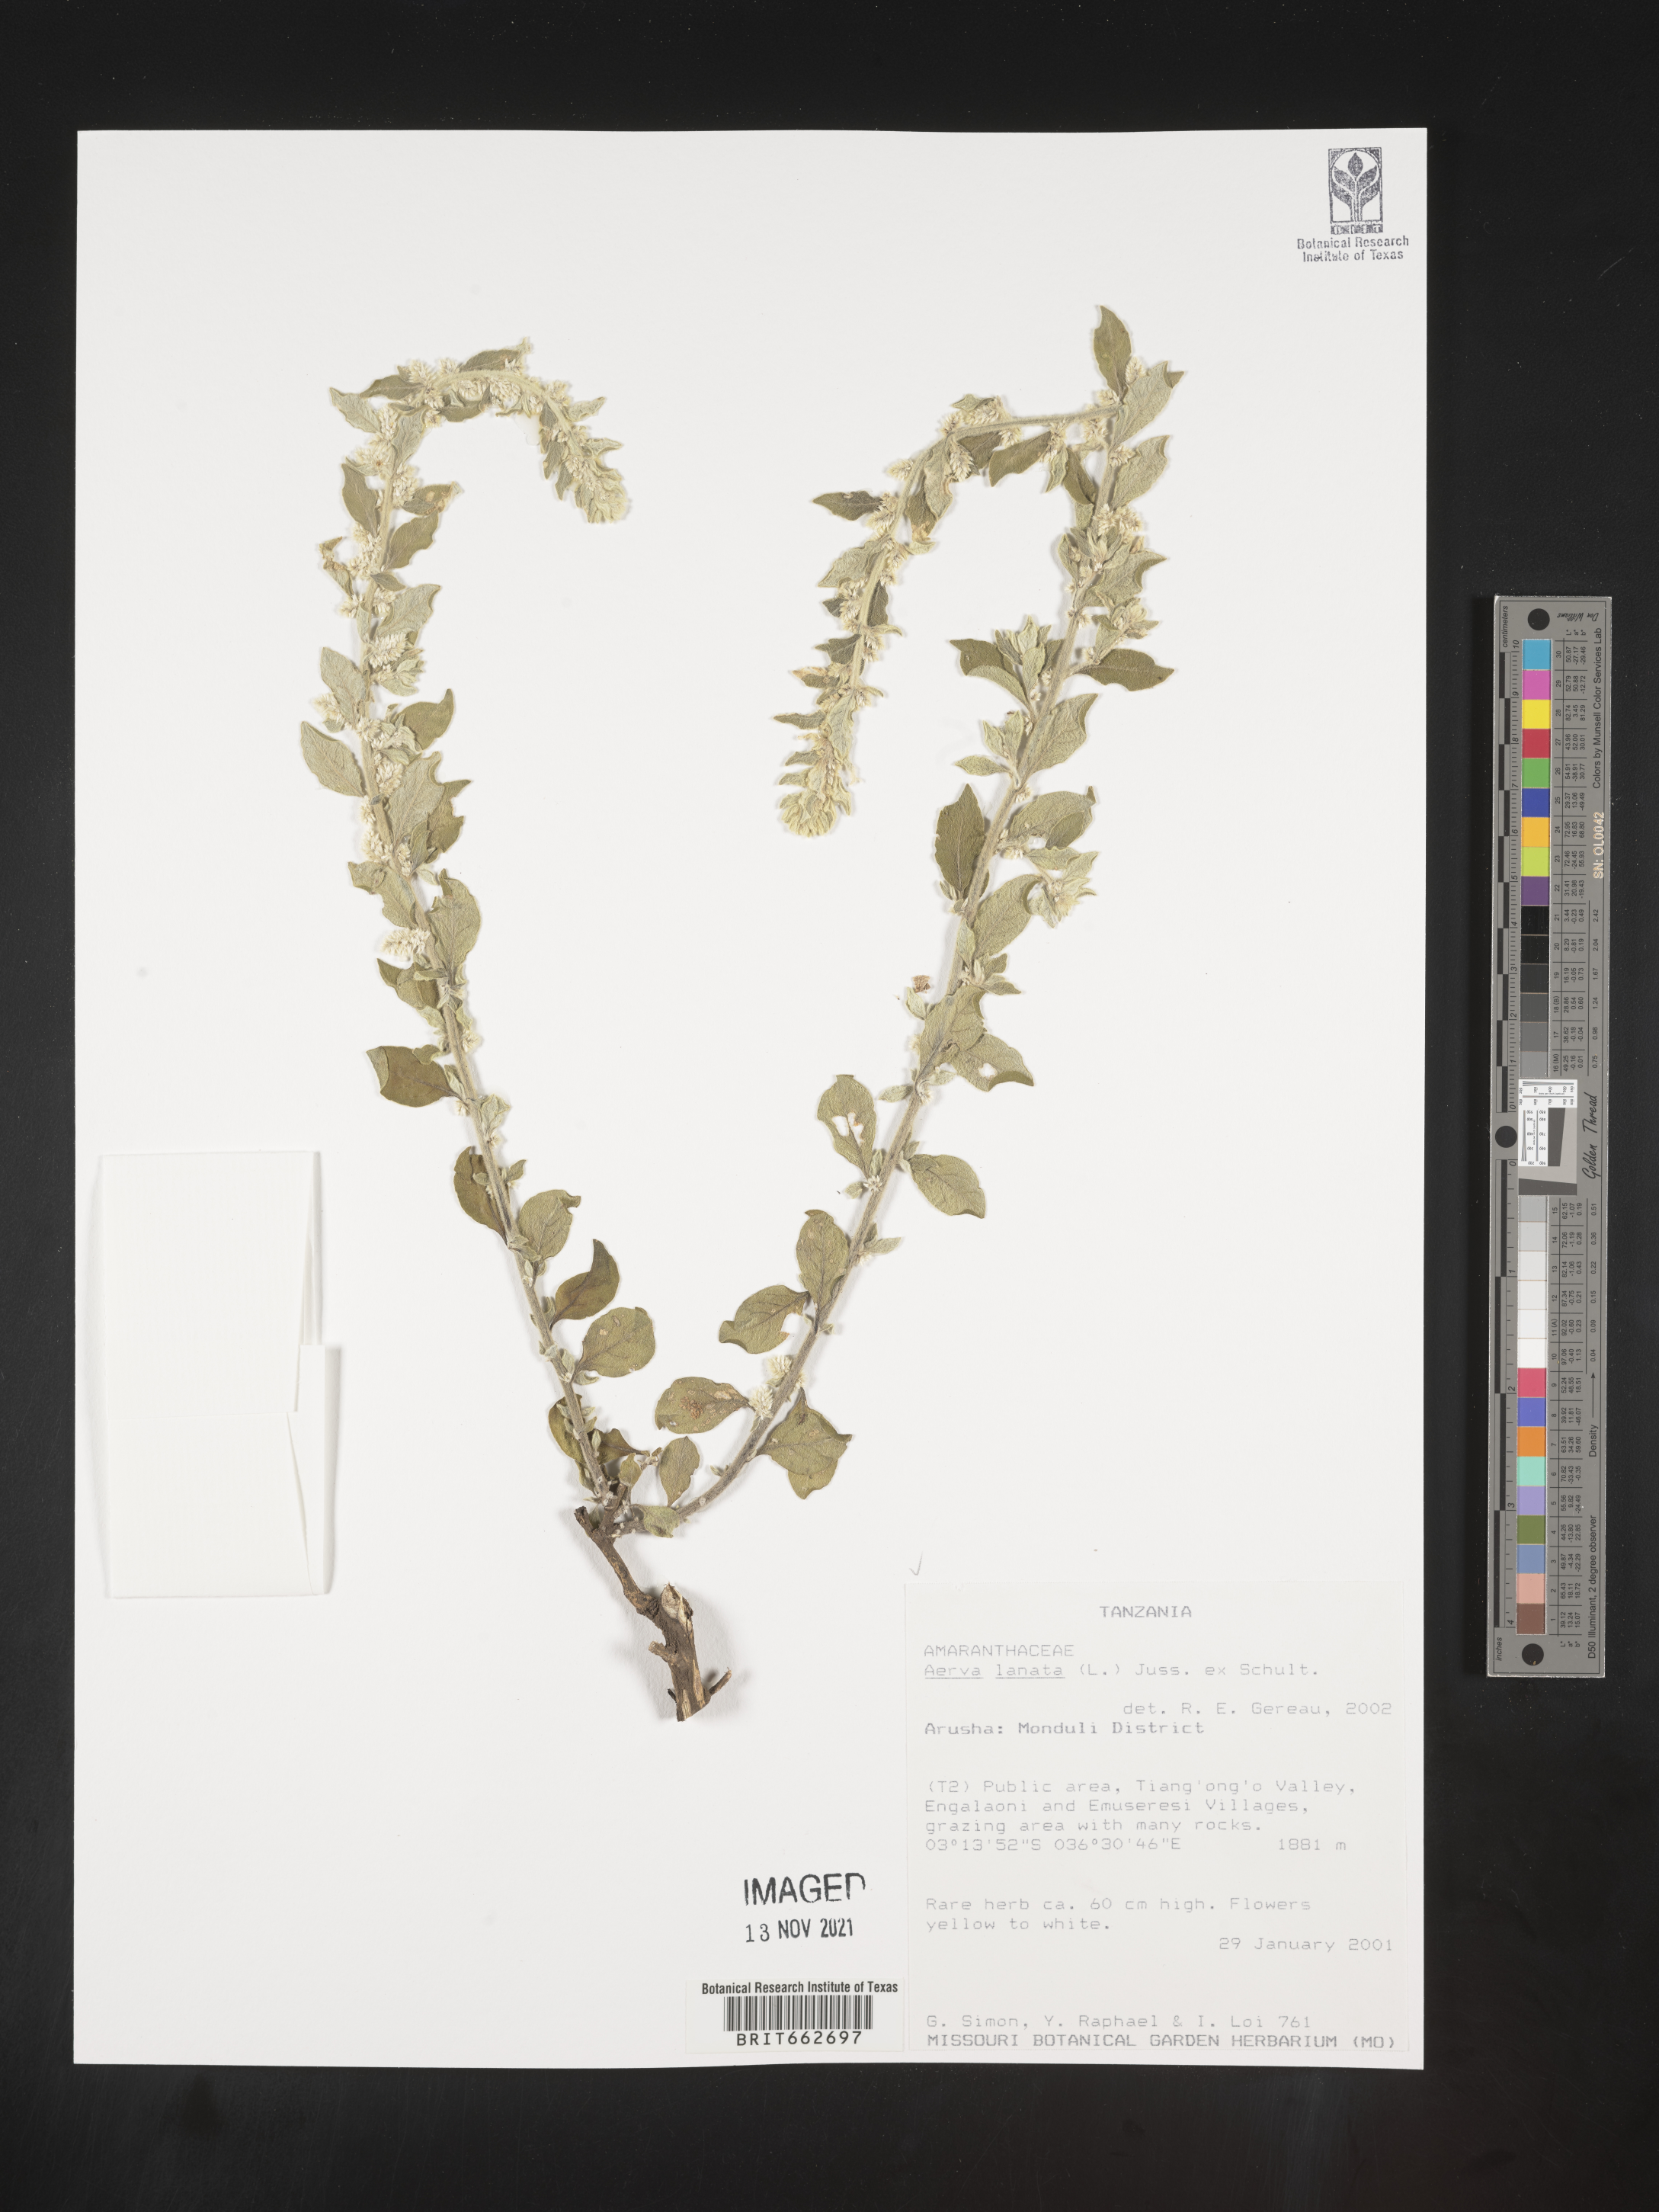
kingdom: Plantae
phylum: Tracheophyta
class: Magnoliopsida
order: Caryophyllales
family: Amaranthaceae
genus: Aerva
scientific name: Aerva
